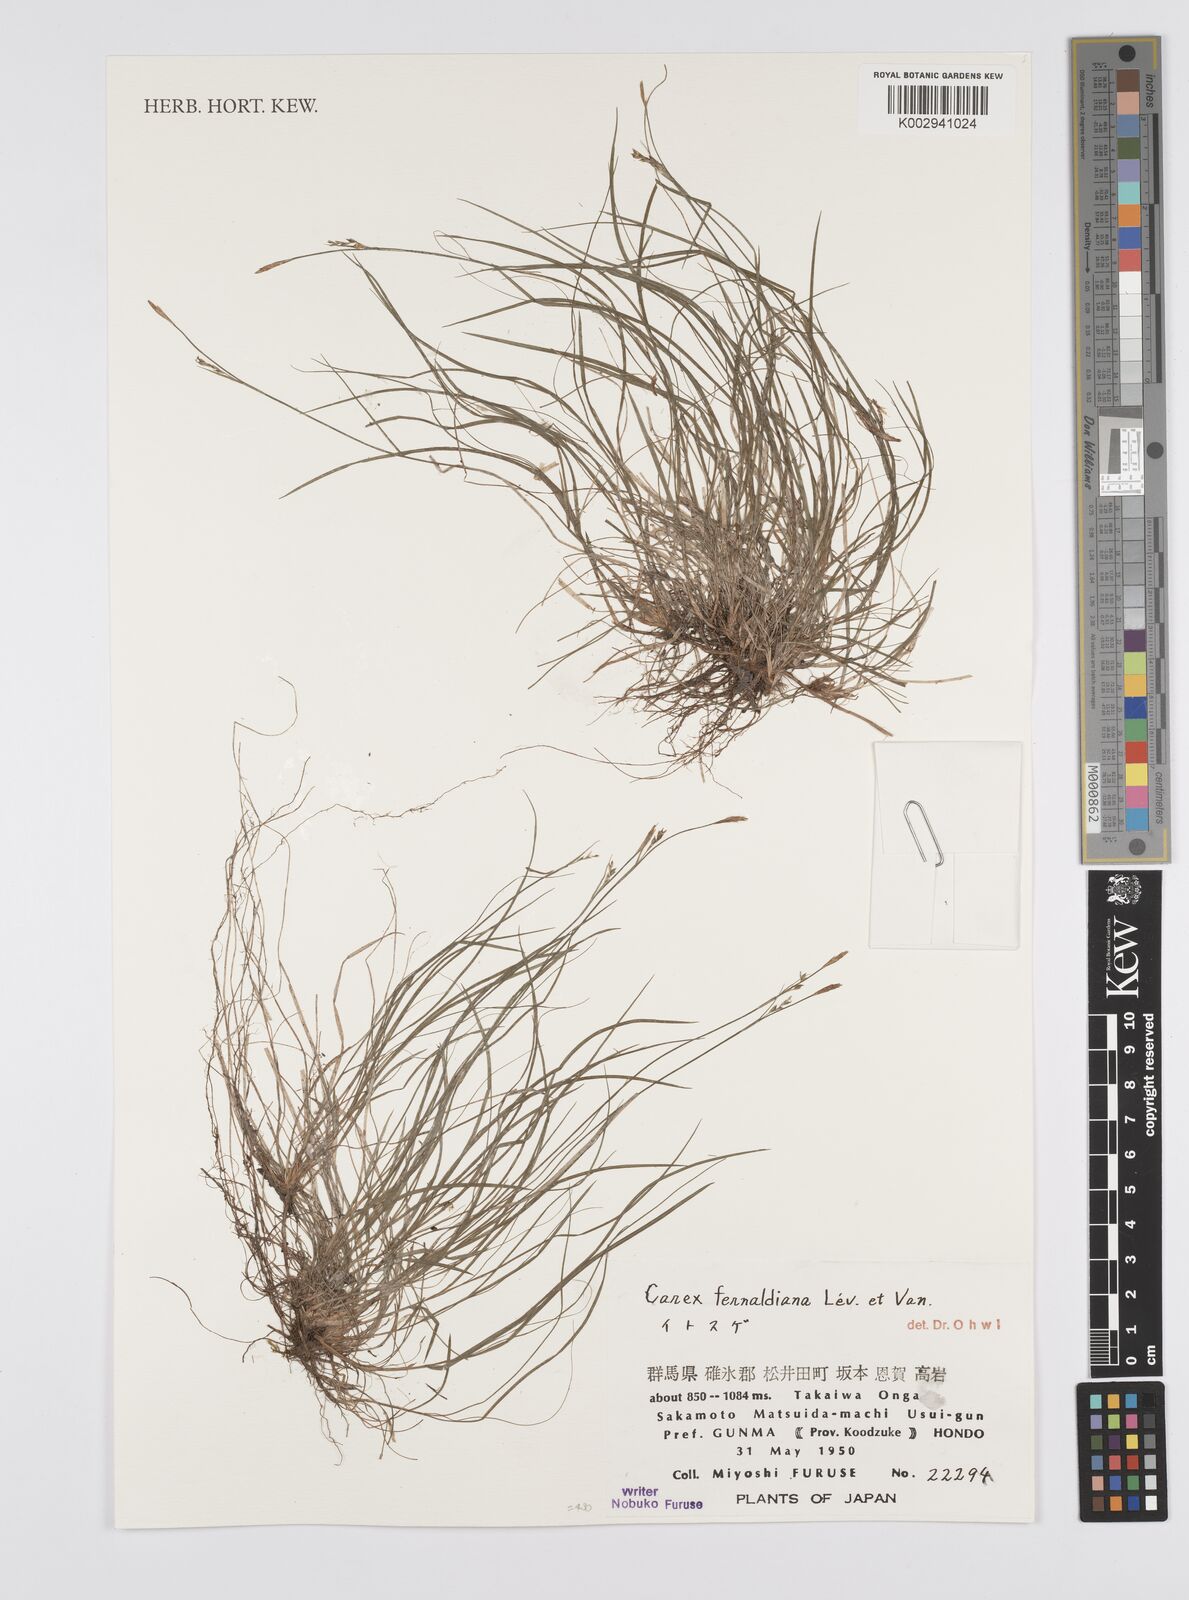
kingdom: Plantae
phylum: Tracheophyta
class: Liliopsida
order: Poales
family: Cyperaceae
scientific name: Cyperaceae
